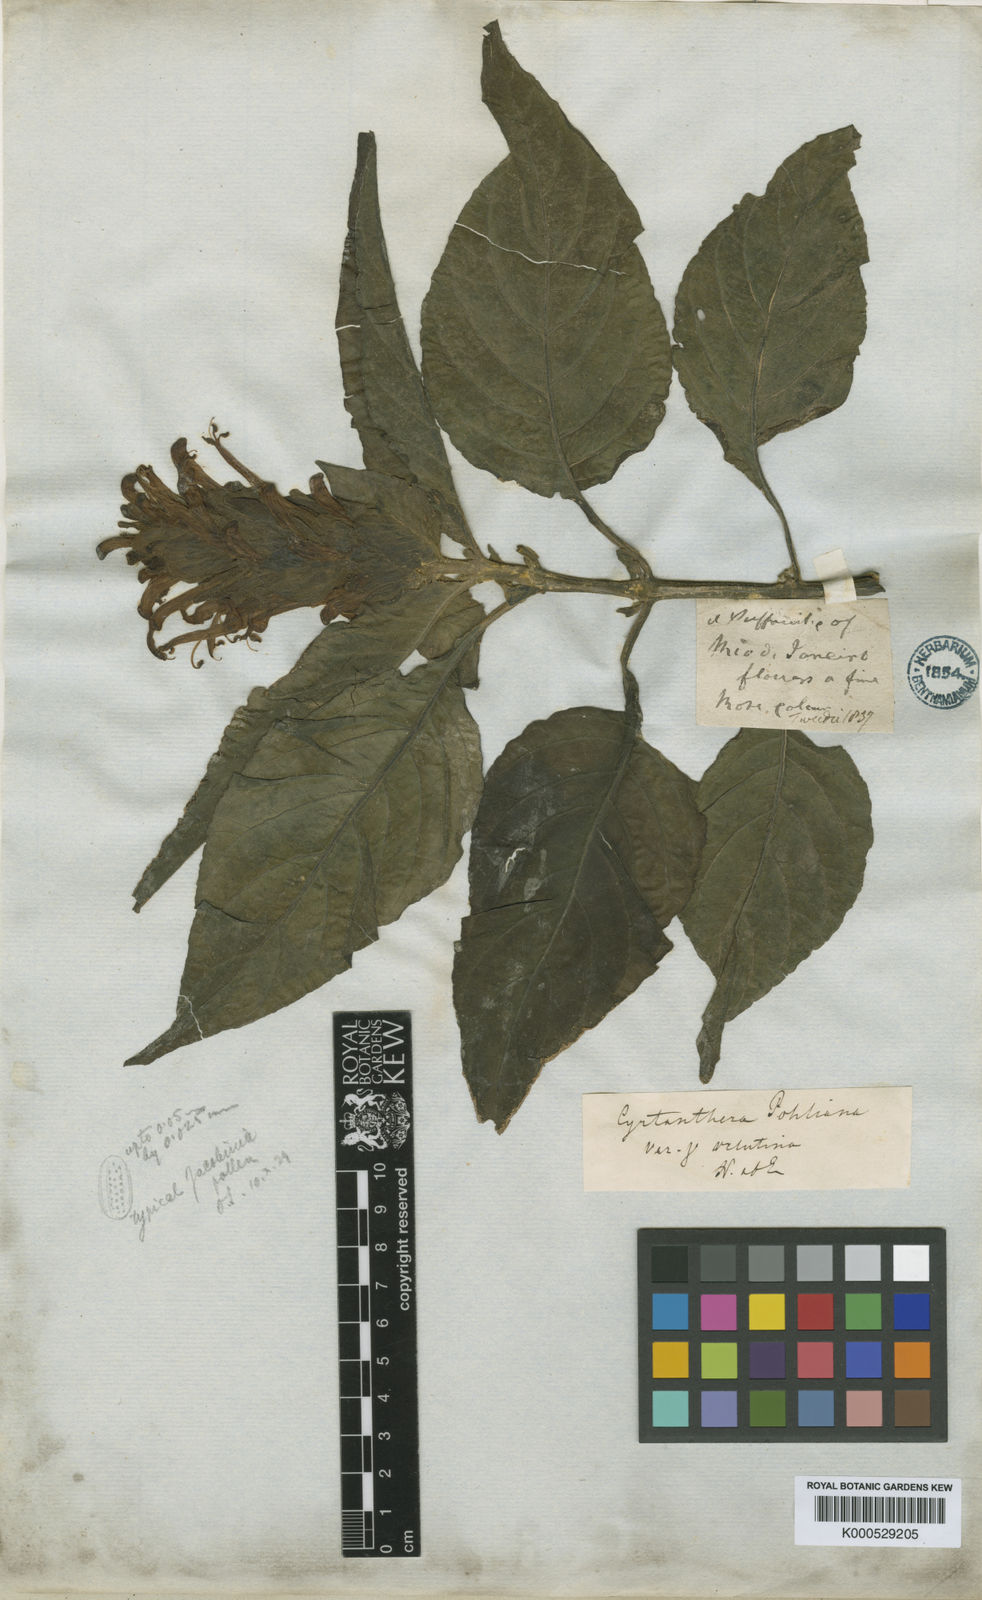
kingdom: Plantae
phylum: Tracheophyta
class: Magnoliopsida
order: Lamiales
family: Acanthaceae
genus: Justicia
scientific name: Justicia carnea
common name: Brazilian-plume
